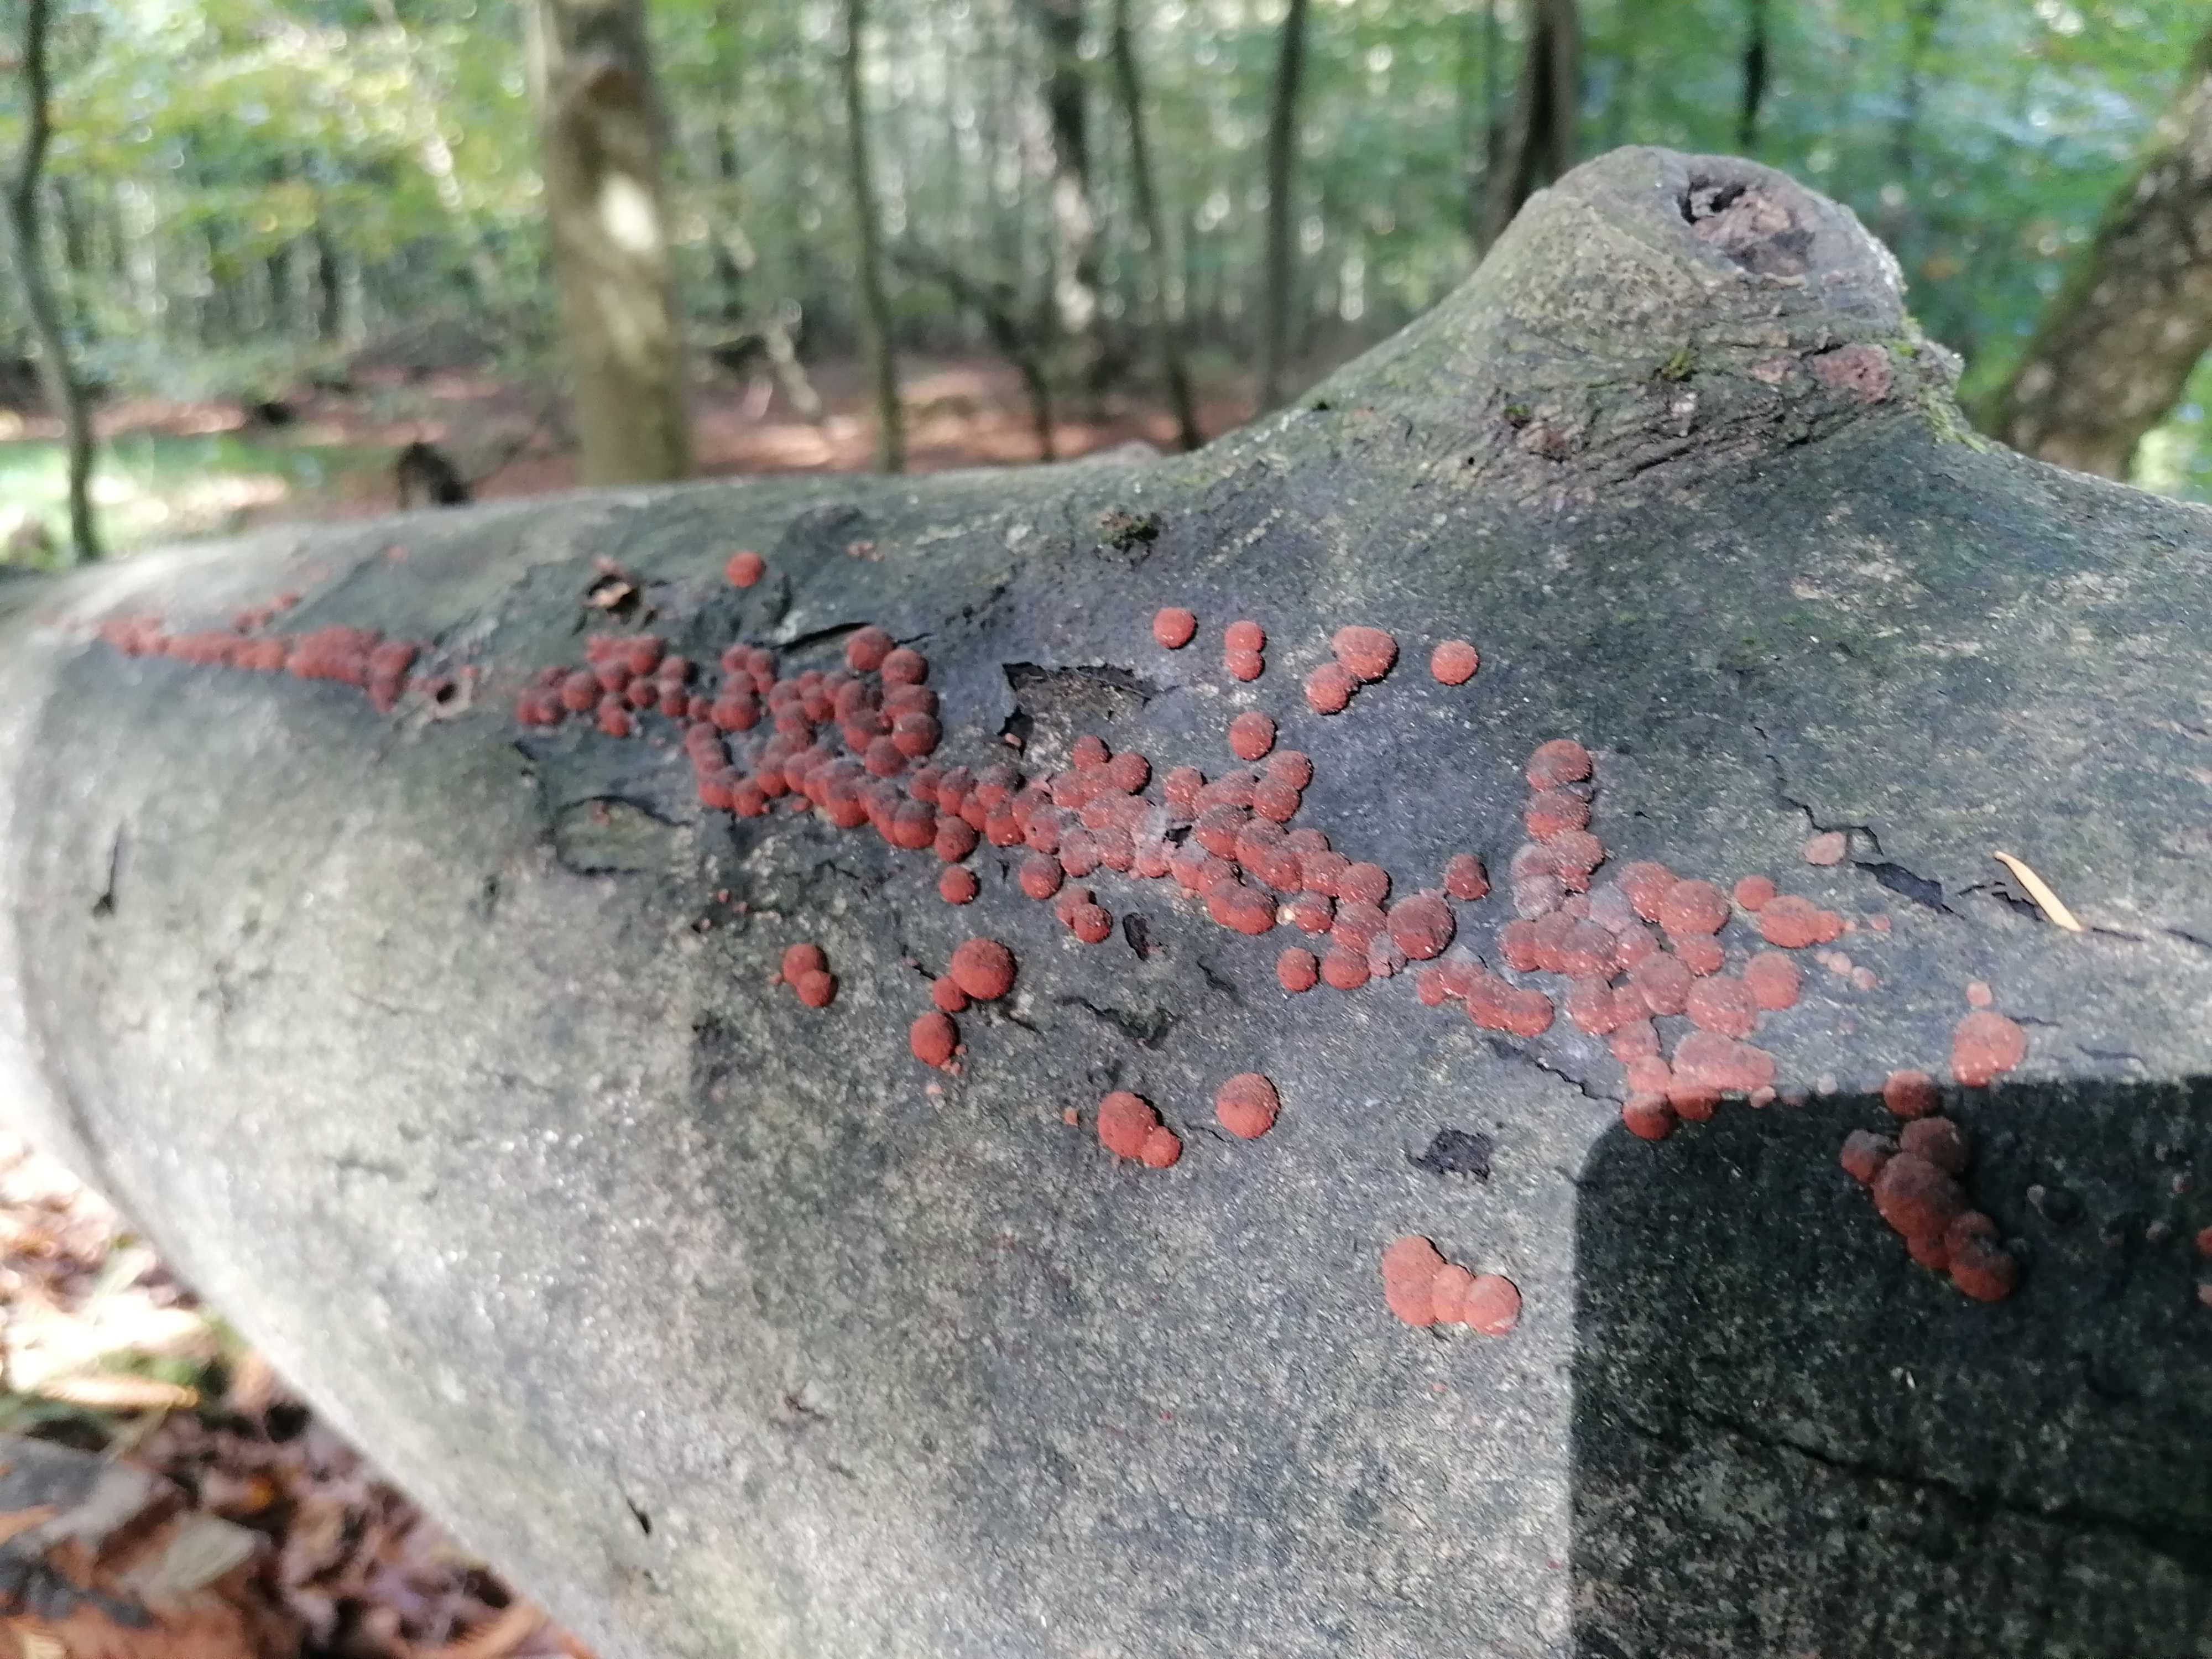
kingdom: Fungi
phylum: Ascomycota
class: Sordariomycetes
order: Xylariales
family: Hypoxylaceae
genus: Hypoxylon
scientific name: Hypoxylon fragiforme
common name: kuljordbær
